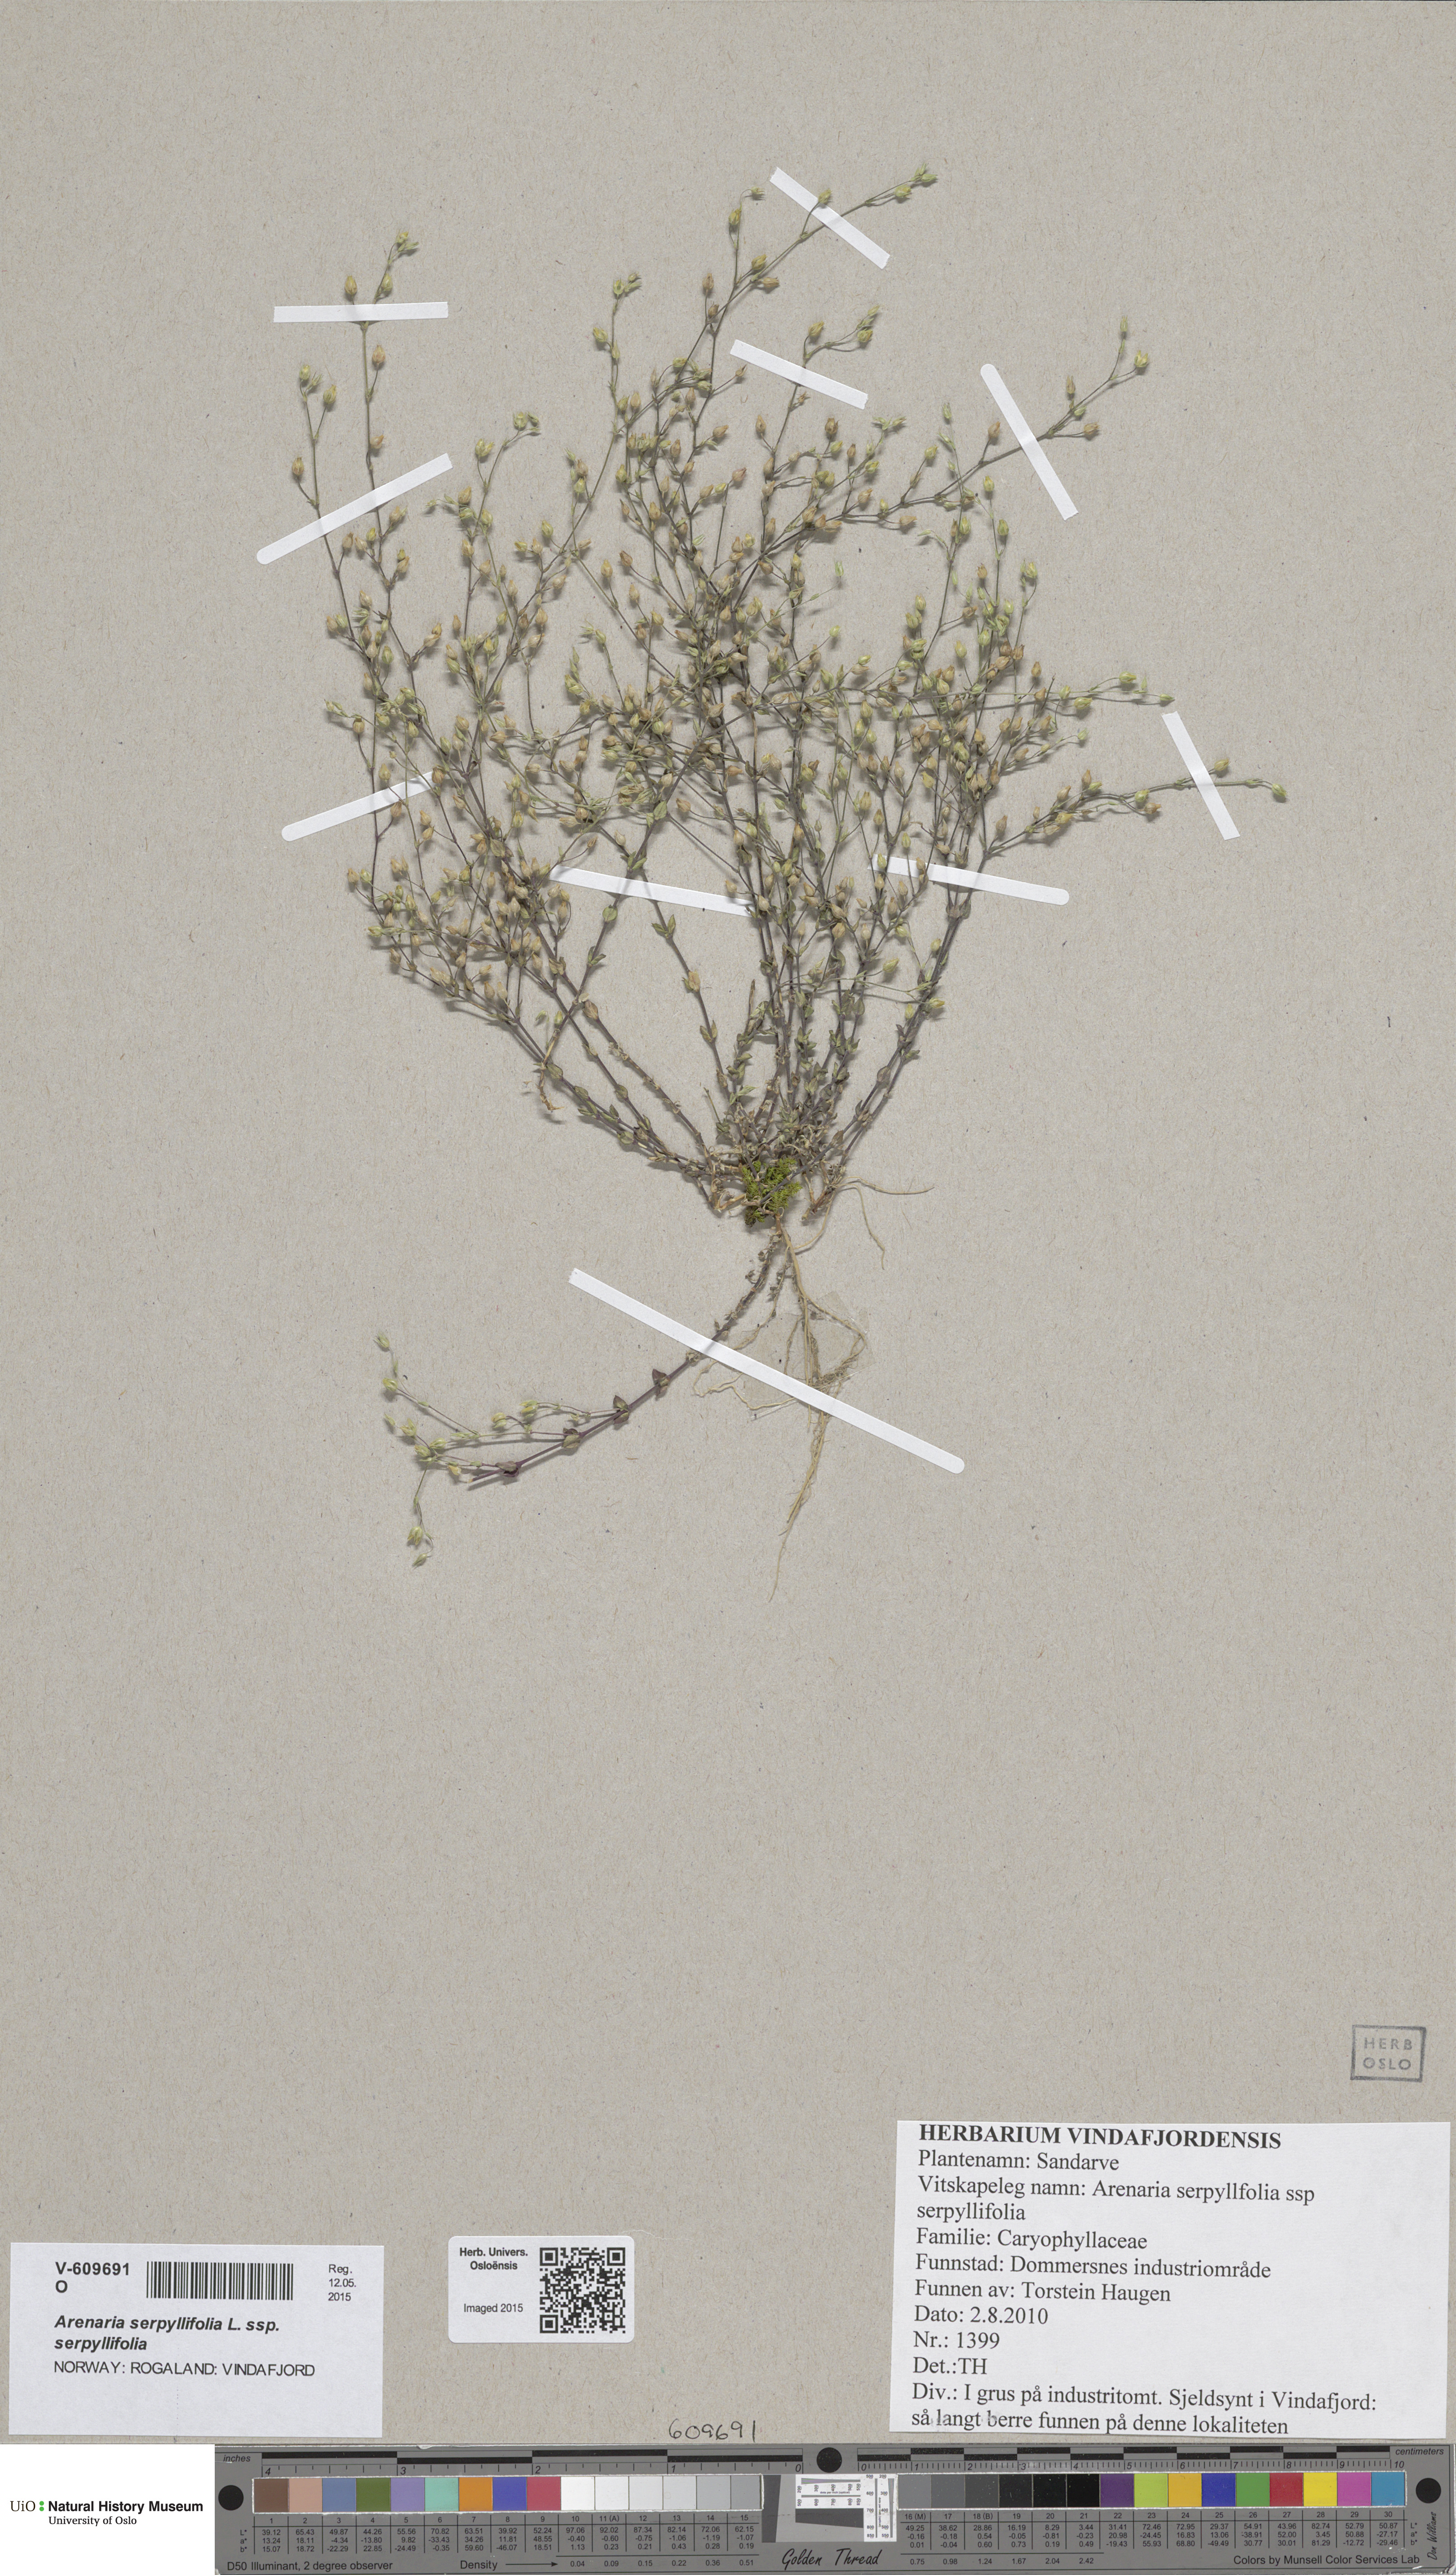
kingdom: Plantae
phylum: Tracheophyta
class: Magnoliopsida
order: Caryophyllales
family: Caryophyllaceae
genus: Arenaria
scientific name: Arenaria serpyllifolia
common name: Thyme-leaved sandwort
